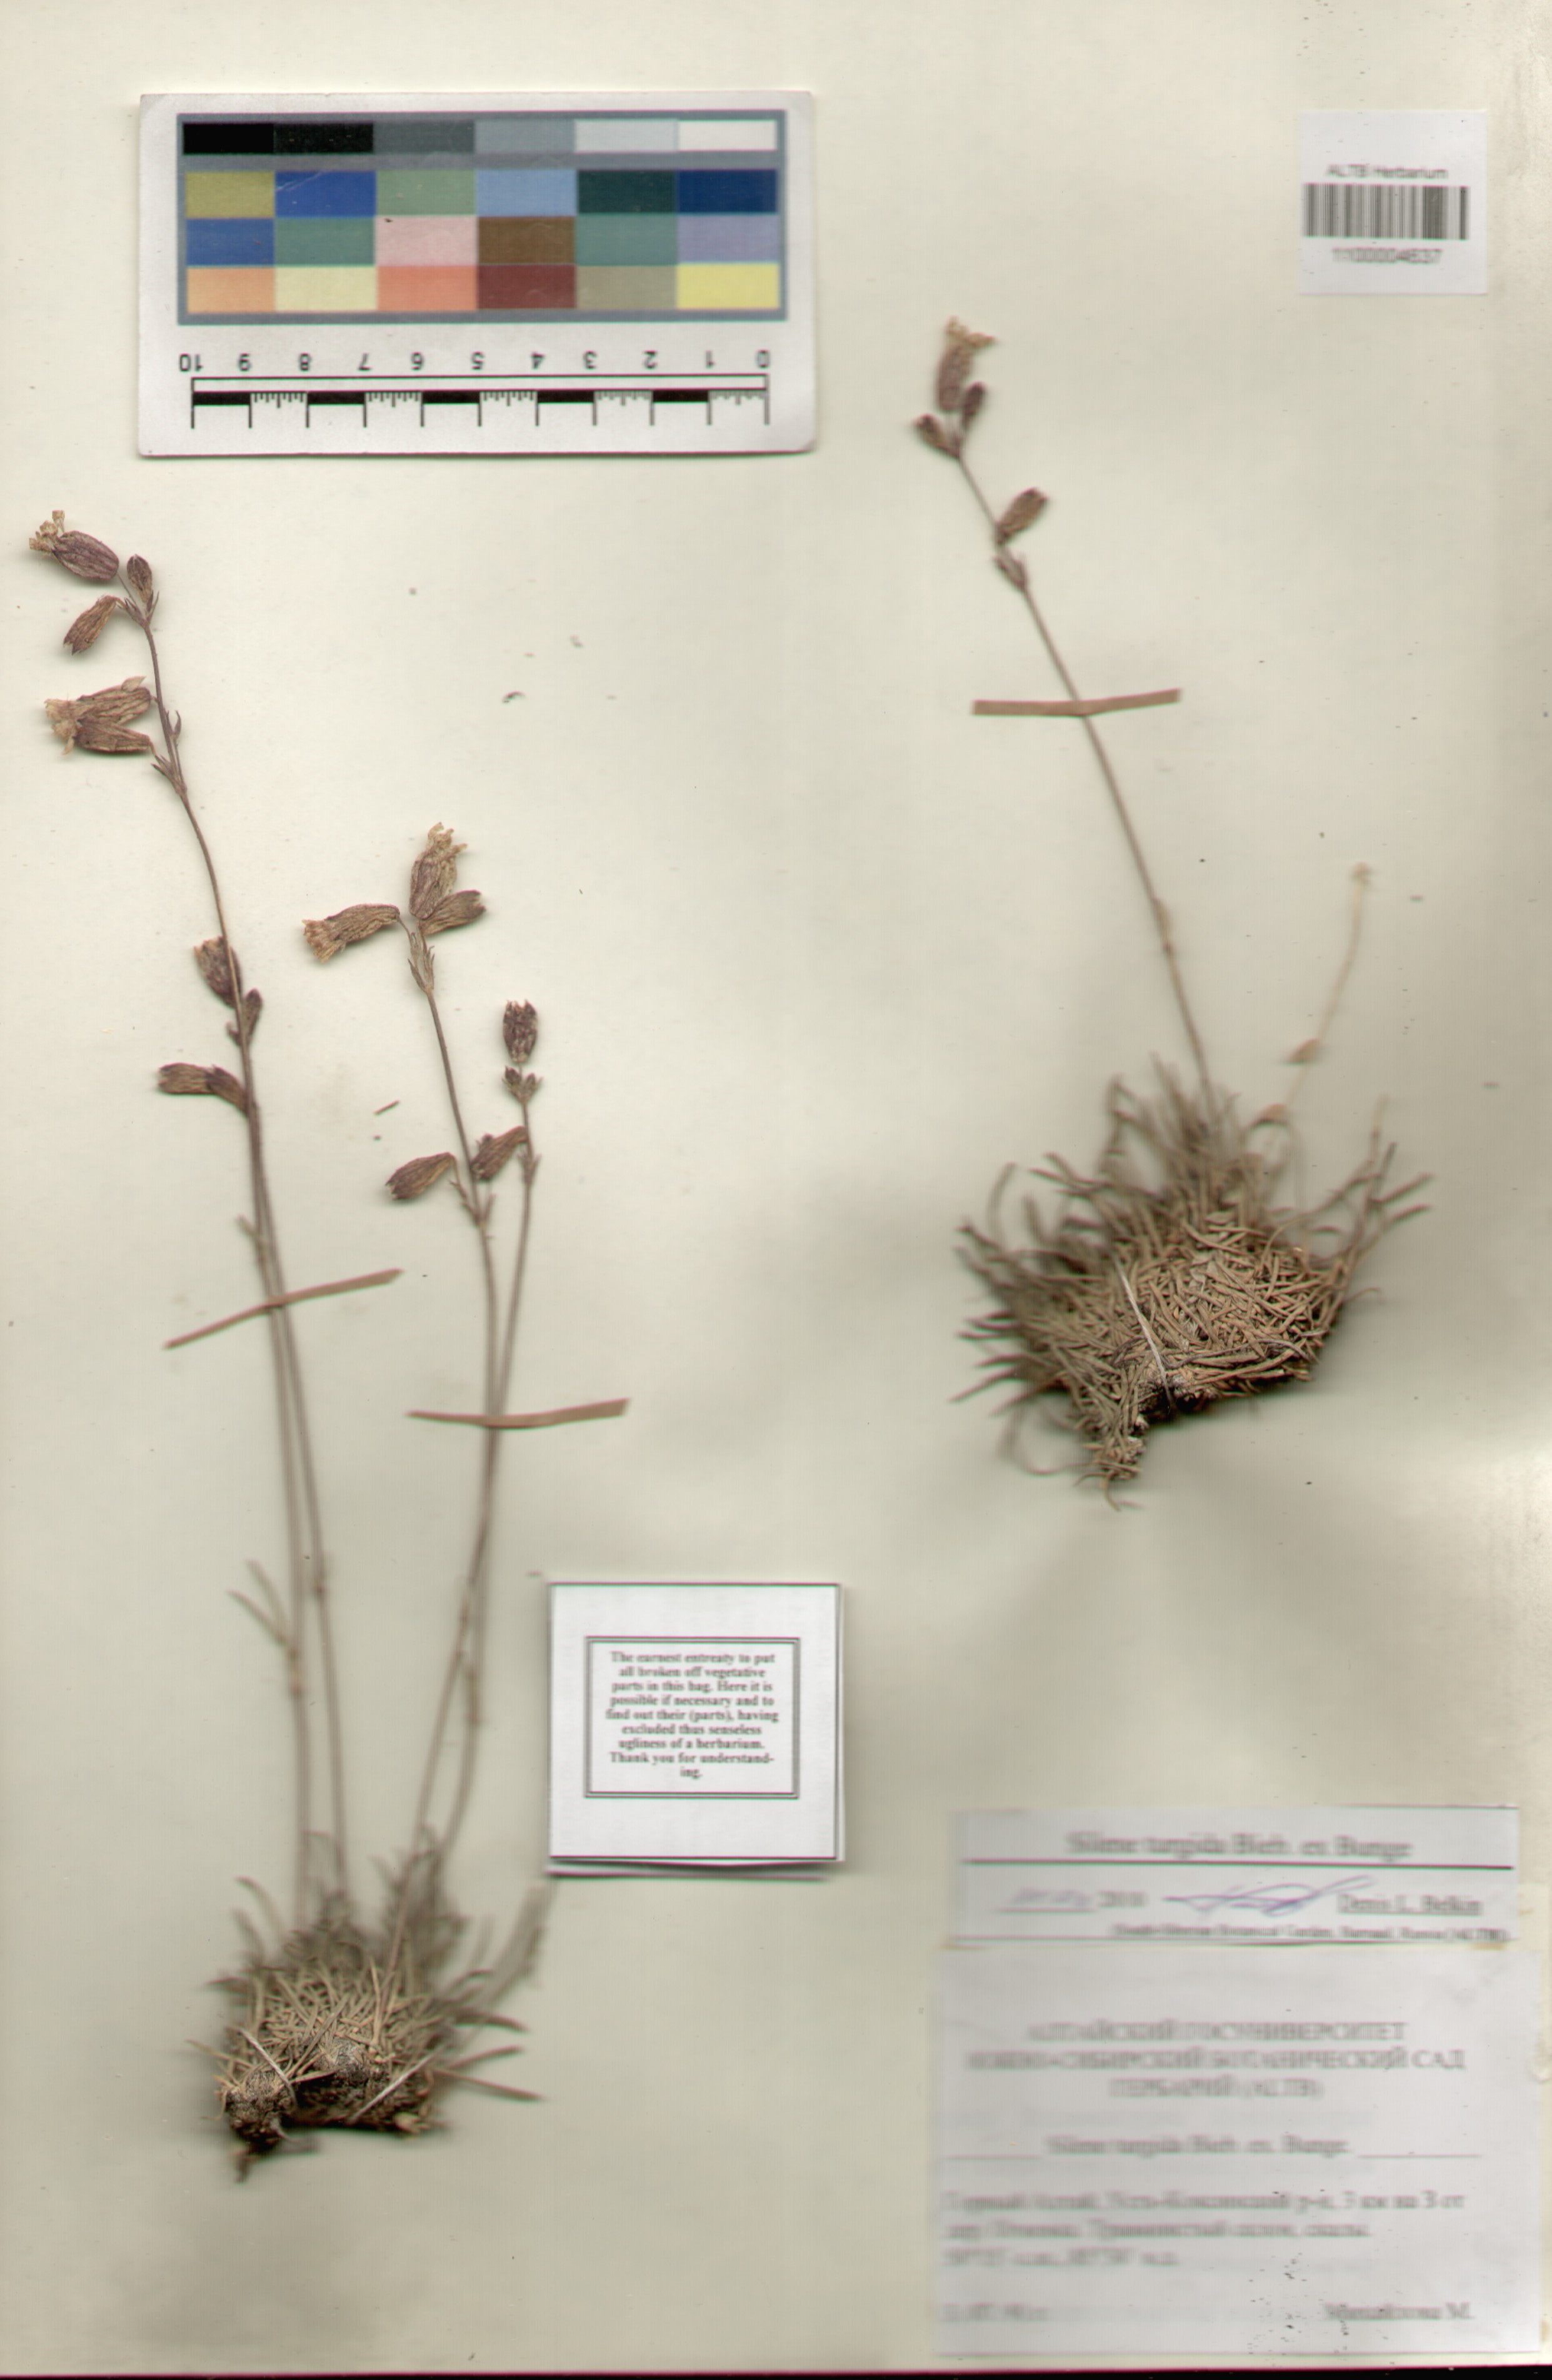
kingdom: Plantae
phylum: Tracheophyta
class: Magnoliopsida
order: Caryophyllales
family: Caryophyllaceae
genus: Silene
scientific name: Silene turgida
